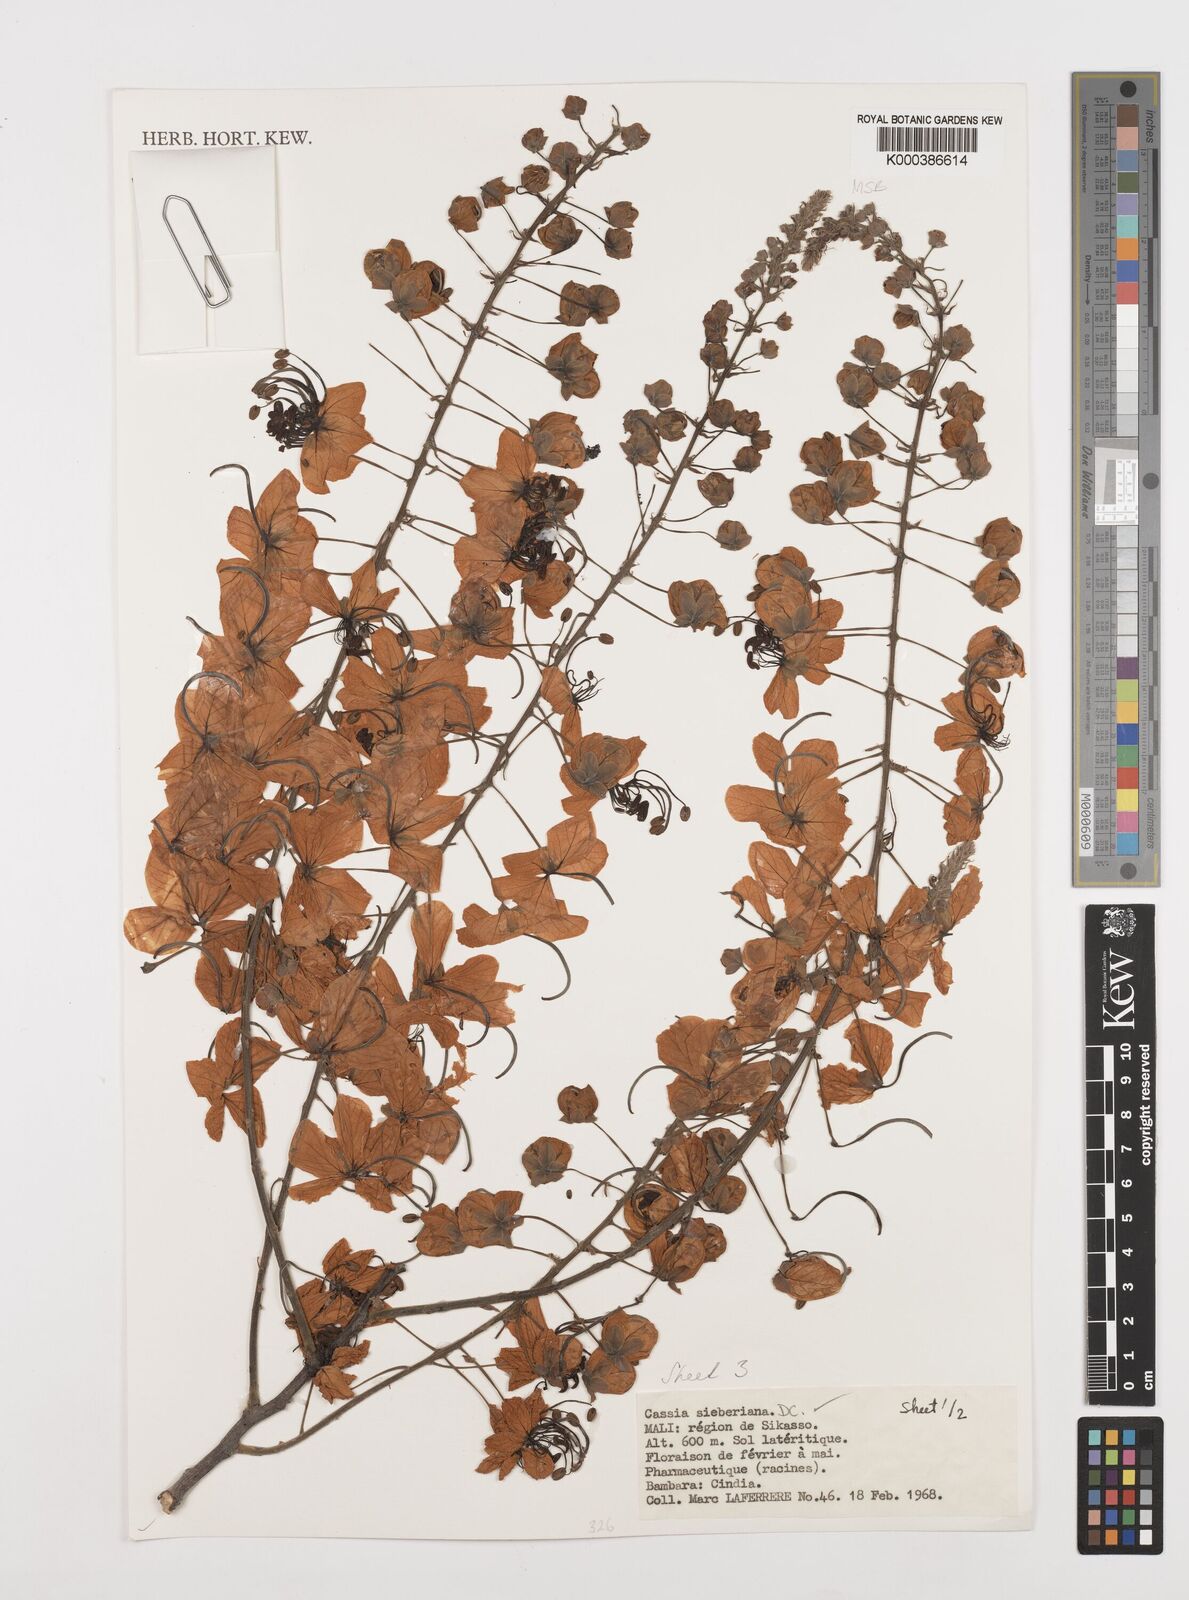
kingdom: Plantae
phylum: Tracheophyta
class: Magnoliopsida
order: Fabales
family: Fabaceae
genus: Cassia
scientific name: Cassia sieberiana
